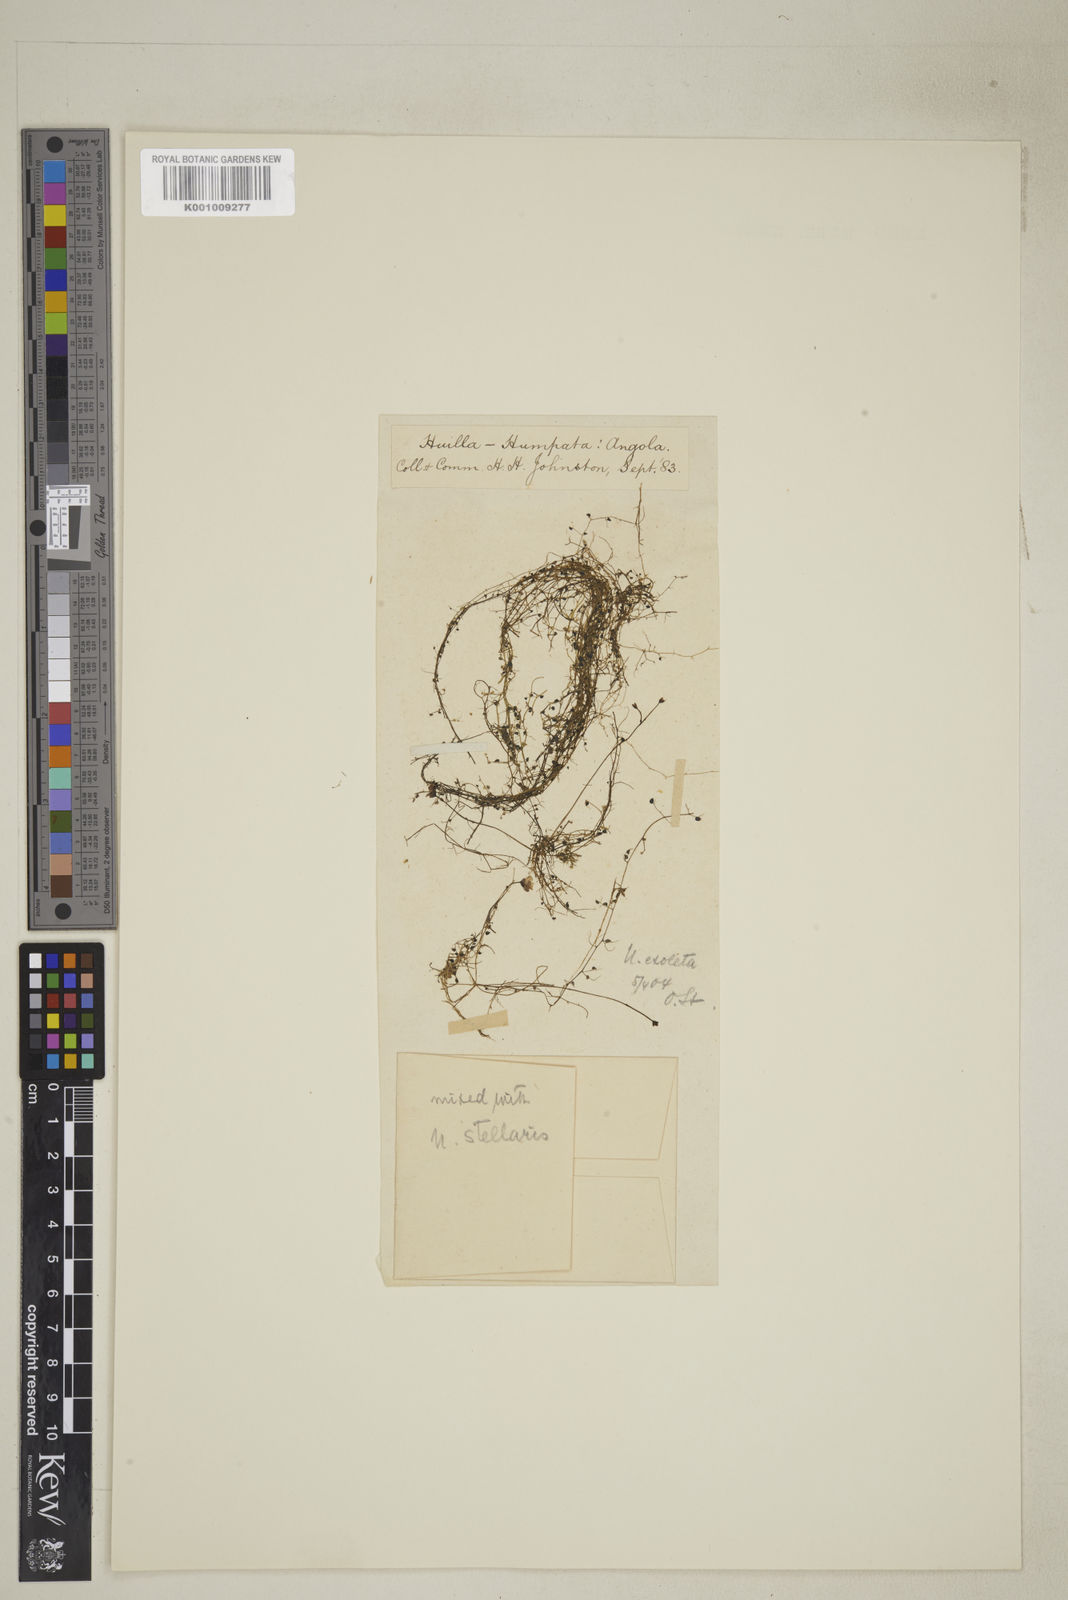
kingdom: Plantae
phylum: Tracheophyta
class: Magnoliopsida
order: Lamiales
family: Lentibulariaceae
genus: Utricularia
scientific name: Utricularia gibba
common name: Humped bladderwort
